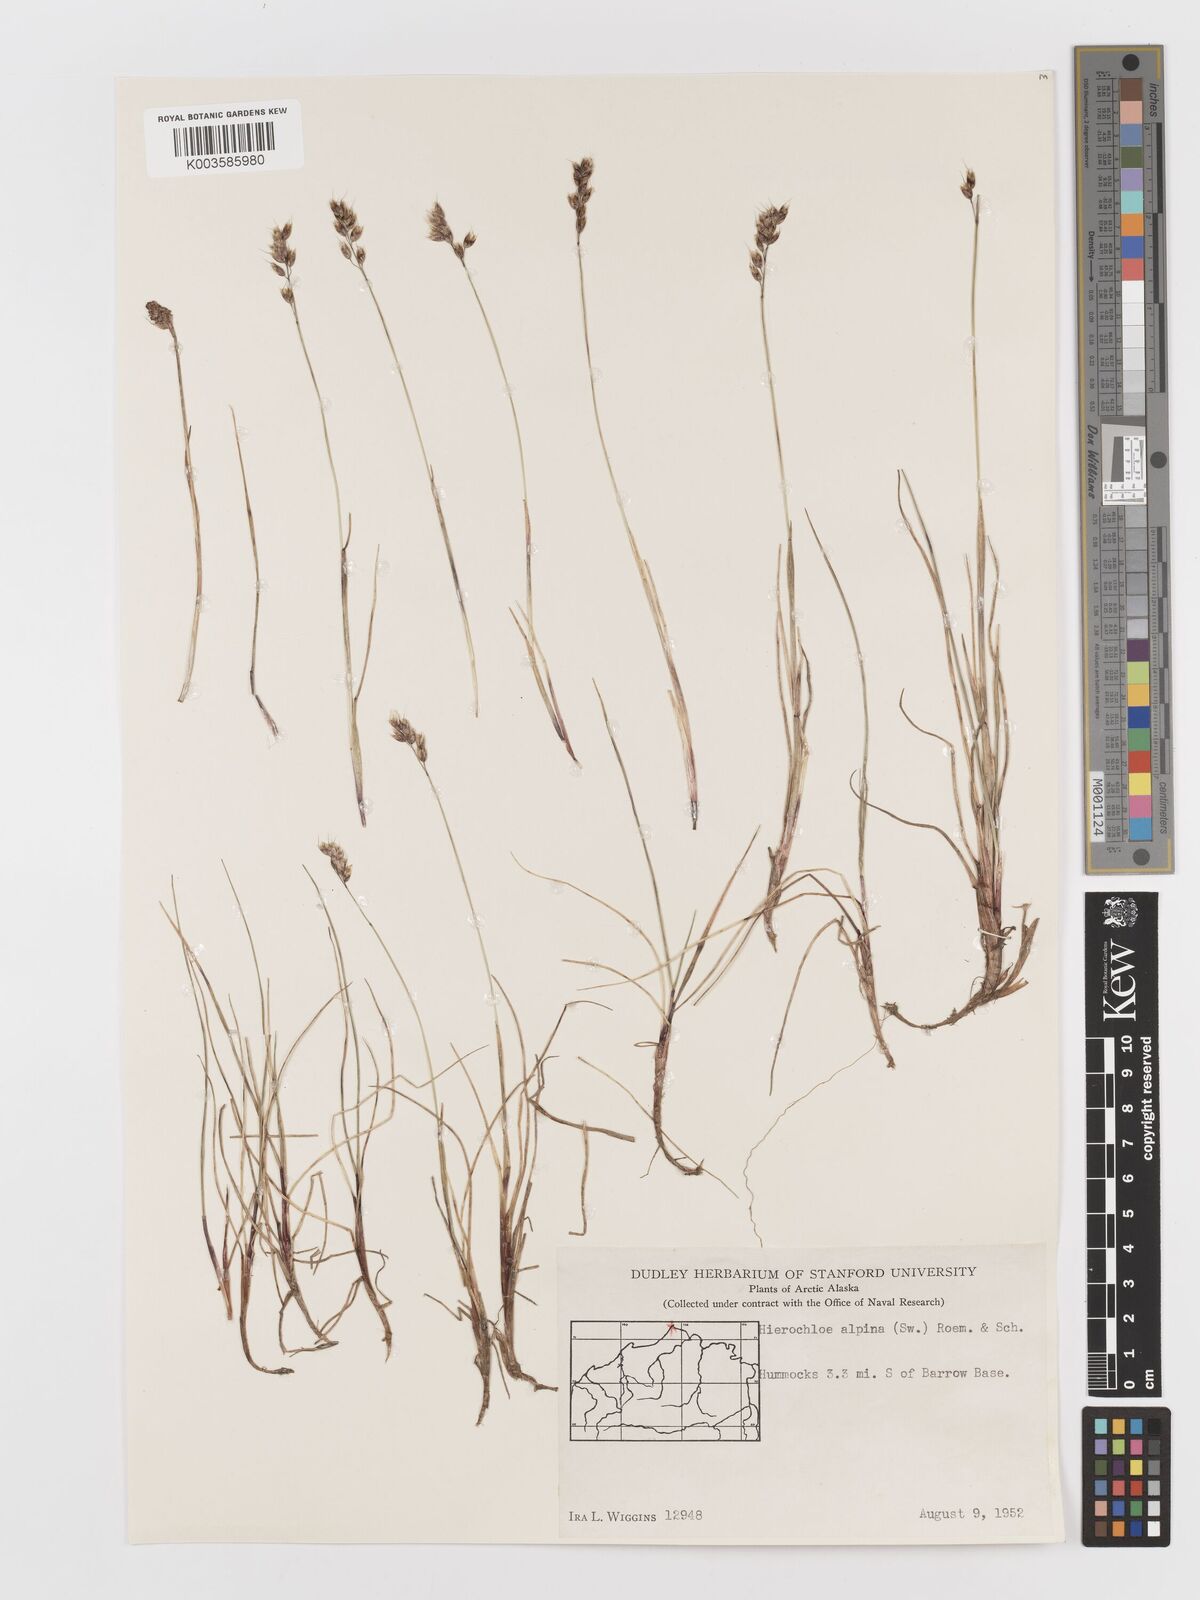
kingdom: Plantae
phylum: Tracheophyta
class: Liliopsida
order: Poales
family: Poaceae
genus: Anthoxanthum
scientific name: Anthoxanthum monticola
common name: Alpine sweetgrass
